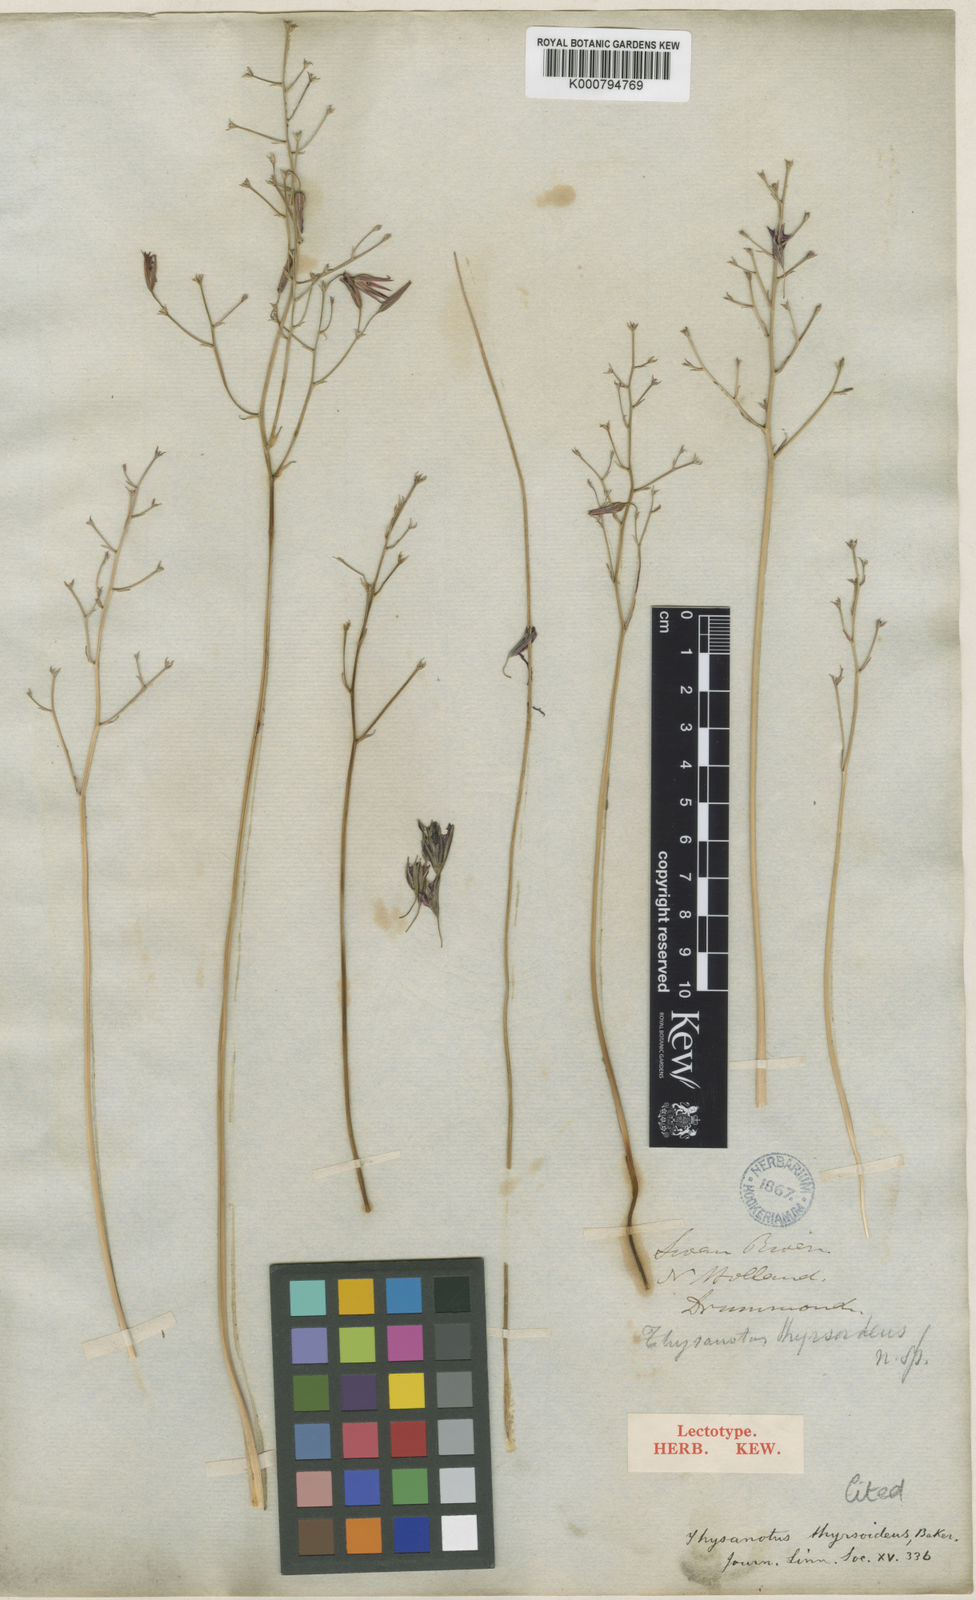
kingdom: Plantae
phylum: Tracheophyta
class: Liliopsida
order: Asparagales
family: Asparagaceae
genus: Thysanotus
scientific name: Thysanotus thyrsoideus
